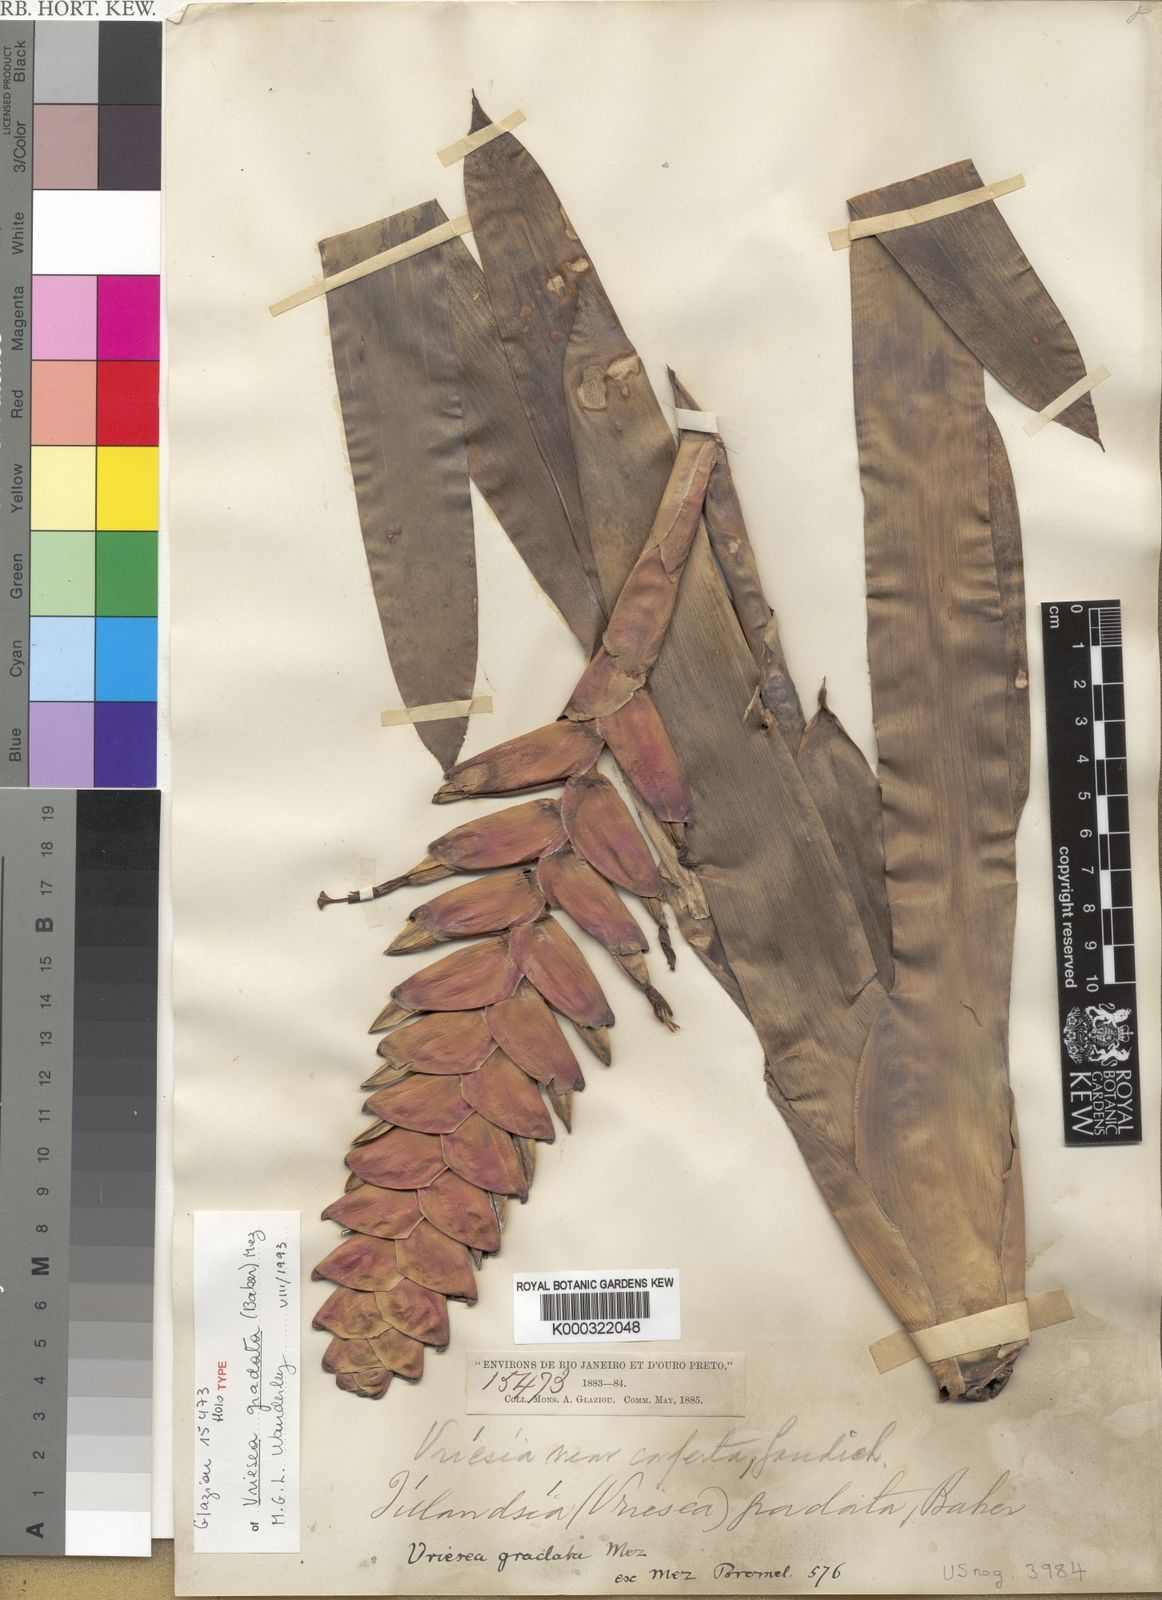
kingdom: Plantae
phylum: Tracheophyta
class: Liliopsida
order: Poales
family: Bromeliaceae
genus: Vriesea
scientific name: Vriesea gradata
